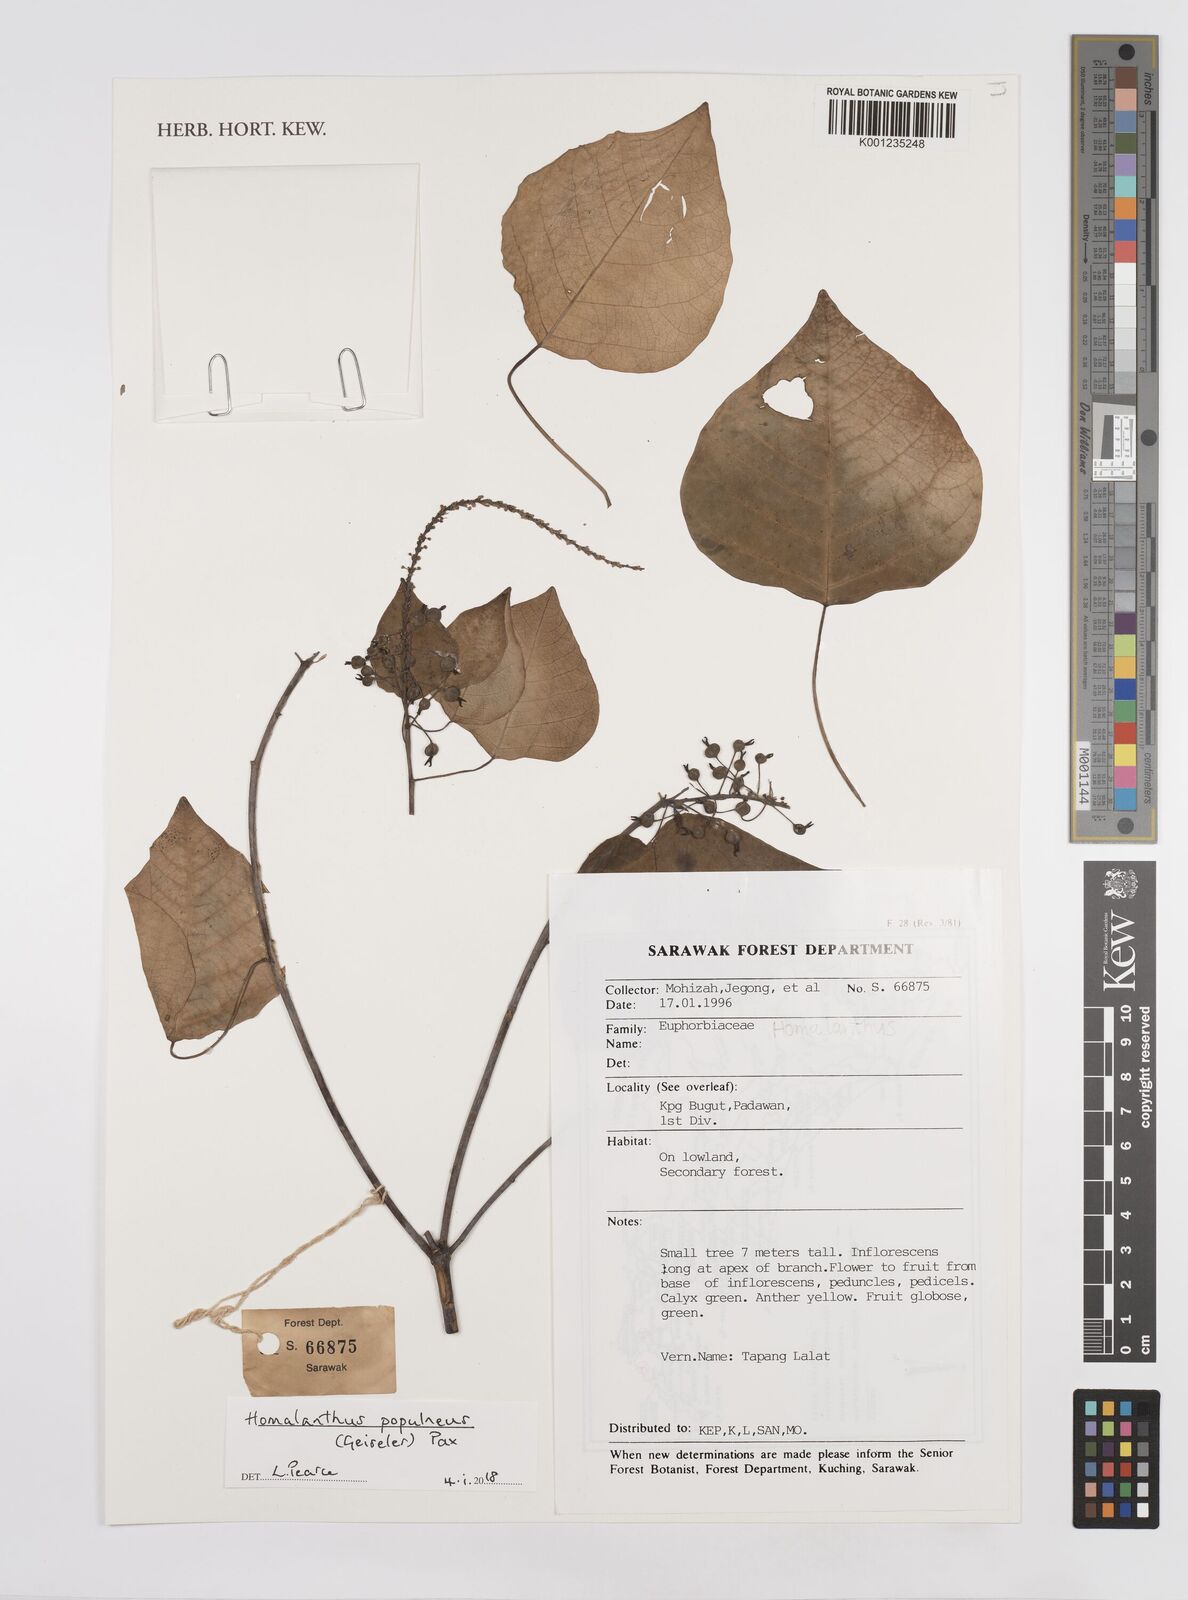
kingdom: Plantae
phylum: Tracheophyta
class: Magnoliopsida
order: Malpighiales
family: Euphorbiaceae
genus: Homalanthus
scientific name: Homalanthus populneus
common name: Spurge
